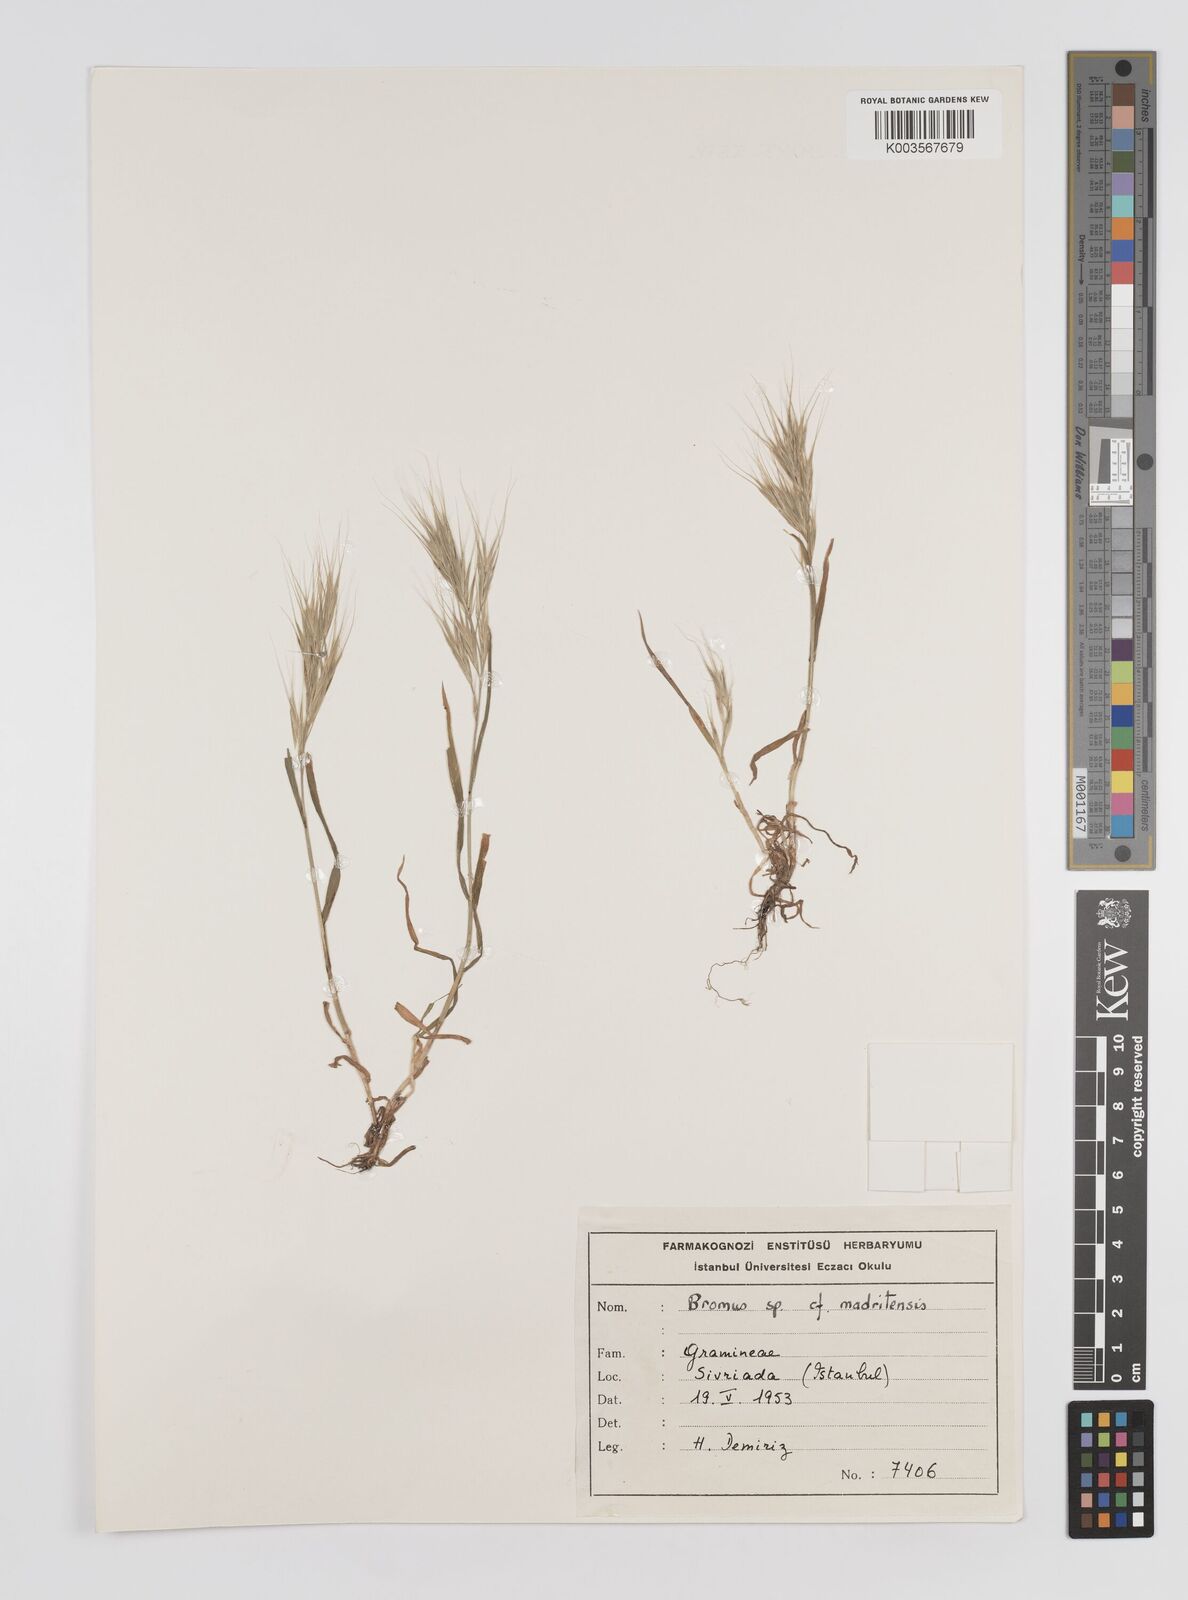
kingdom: Plantae
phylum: Tracheophyta
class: Liliopsida
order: Poales
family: Poaceae
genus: Bromus
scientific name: Bromus
